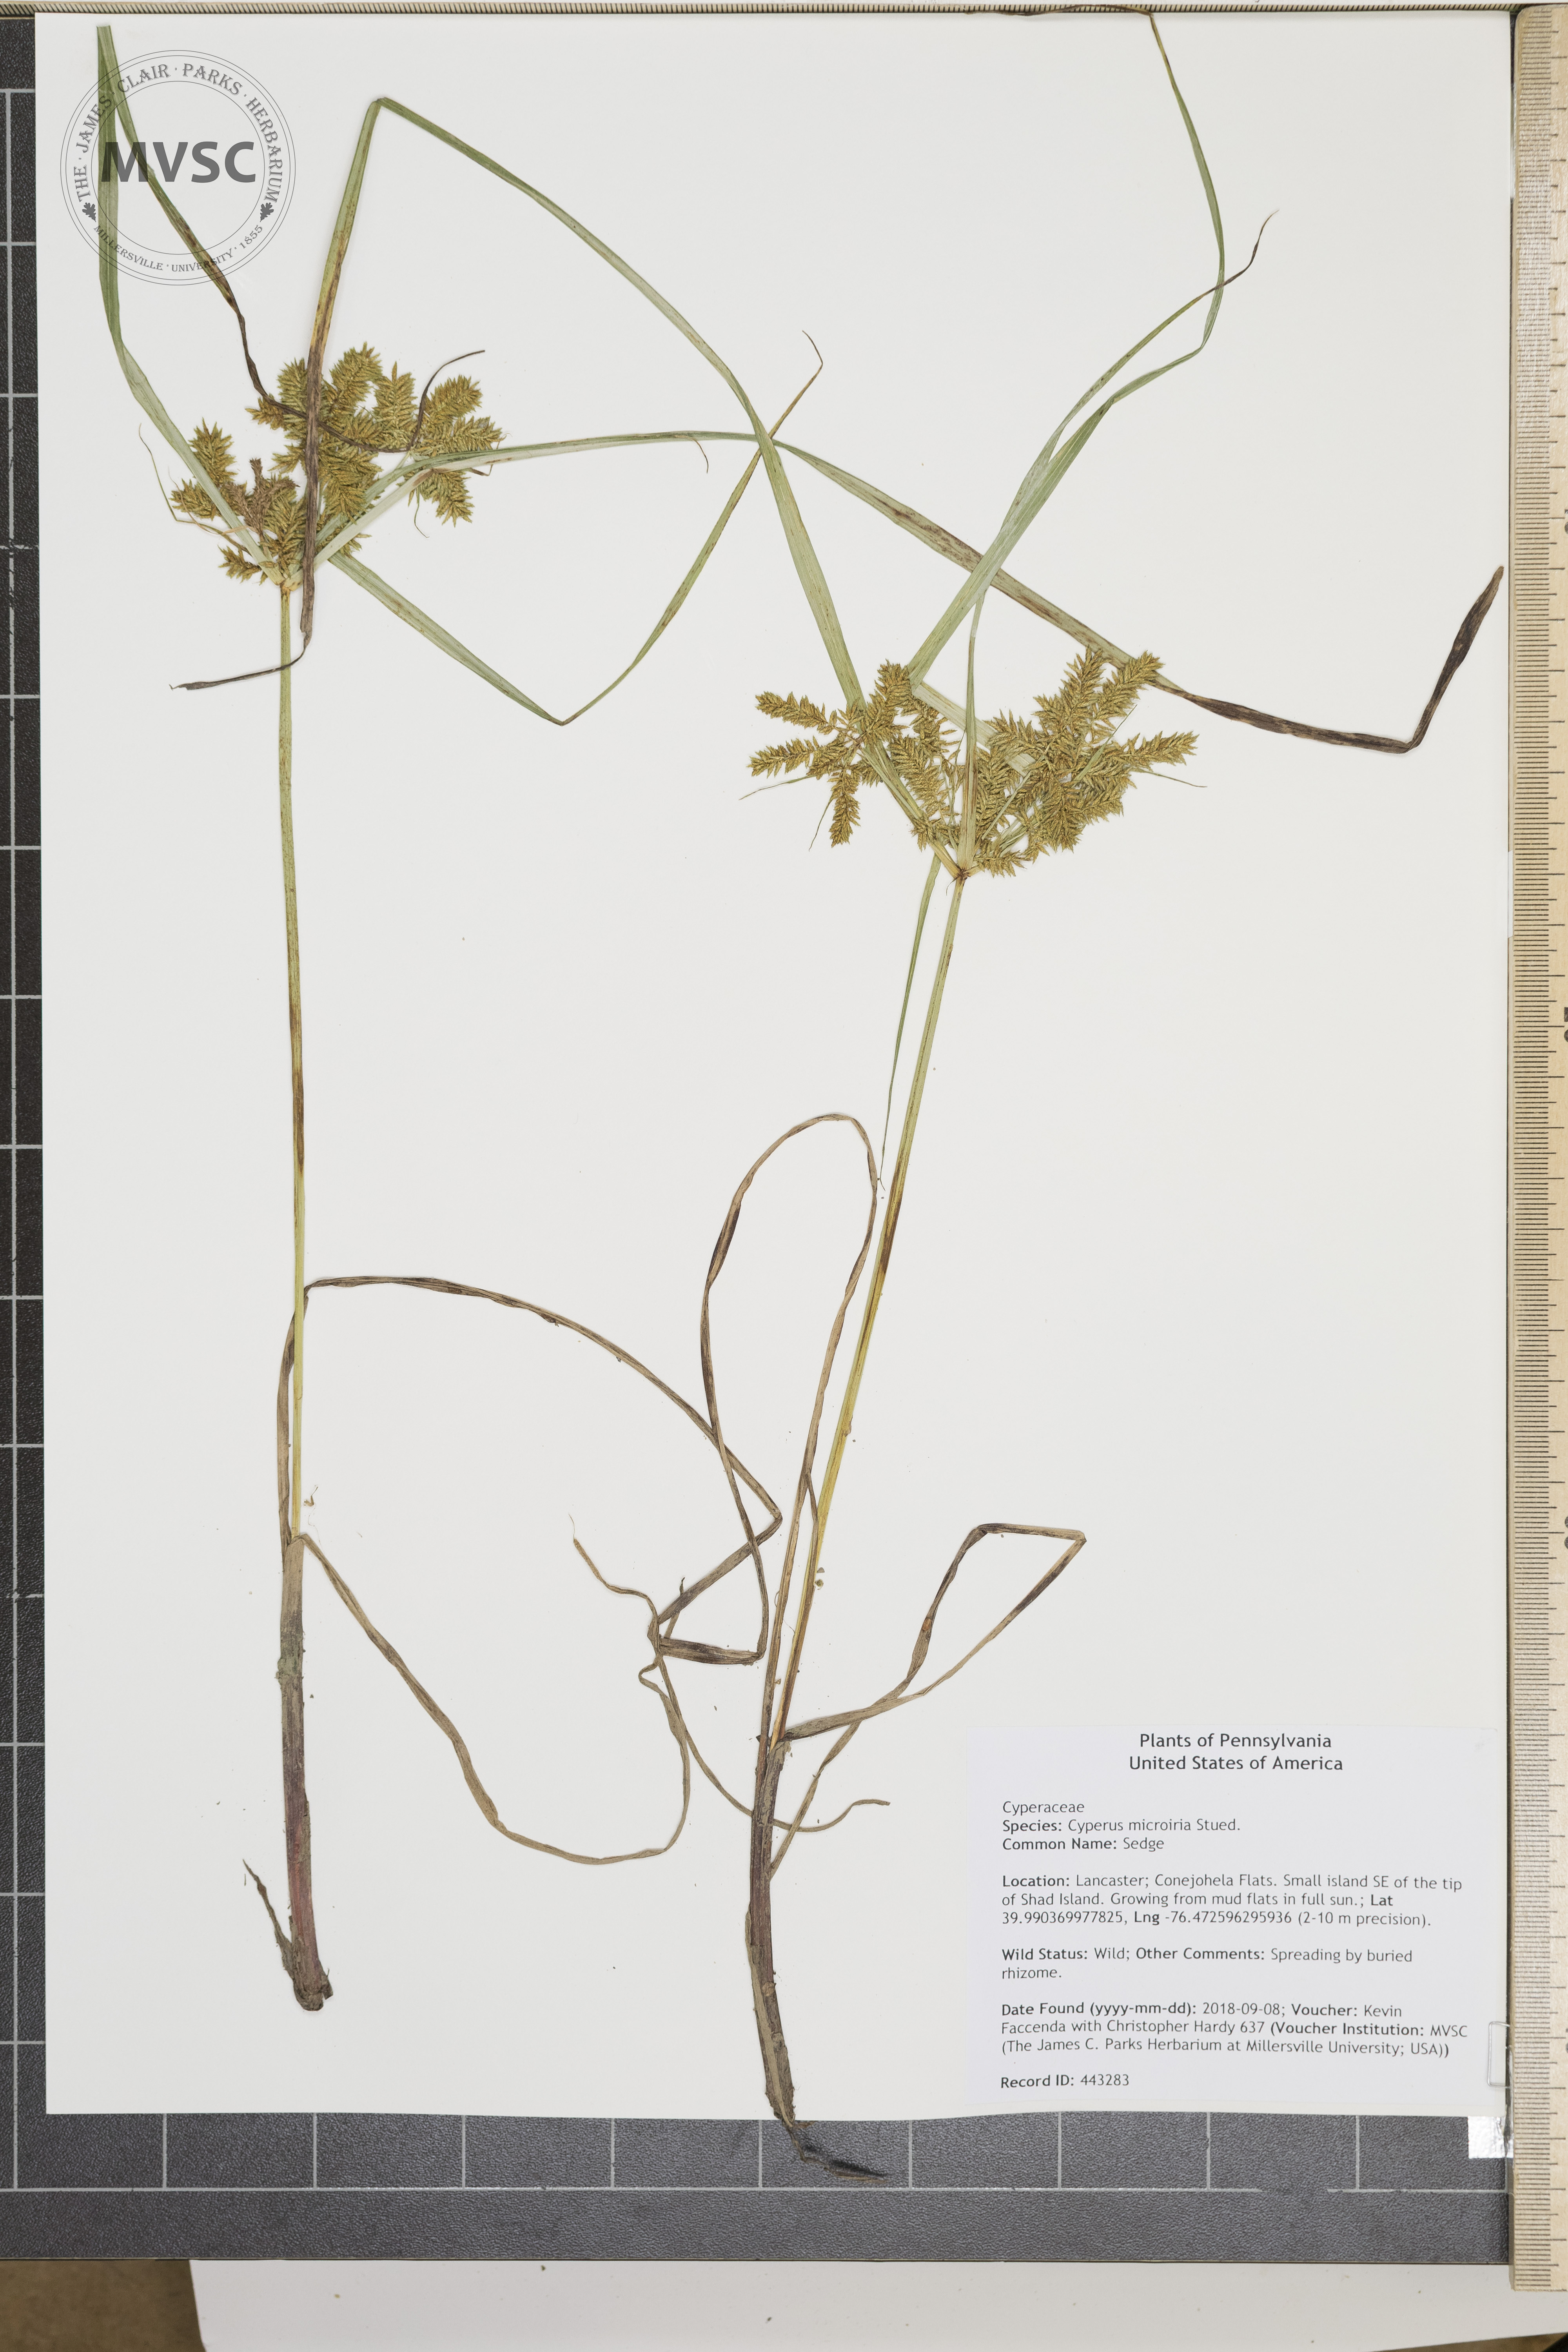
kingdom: Plantae
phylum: Tracheophyta
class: Liliopsida
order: Poales
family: Cyperaceae
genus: Cyperus
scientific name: Cyperus erythrorhizos
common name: Sedge
